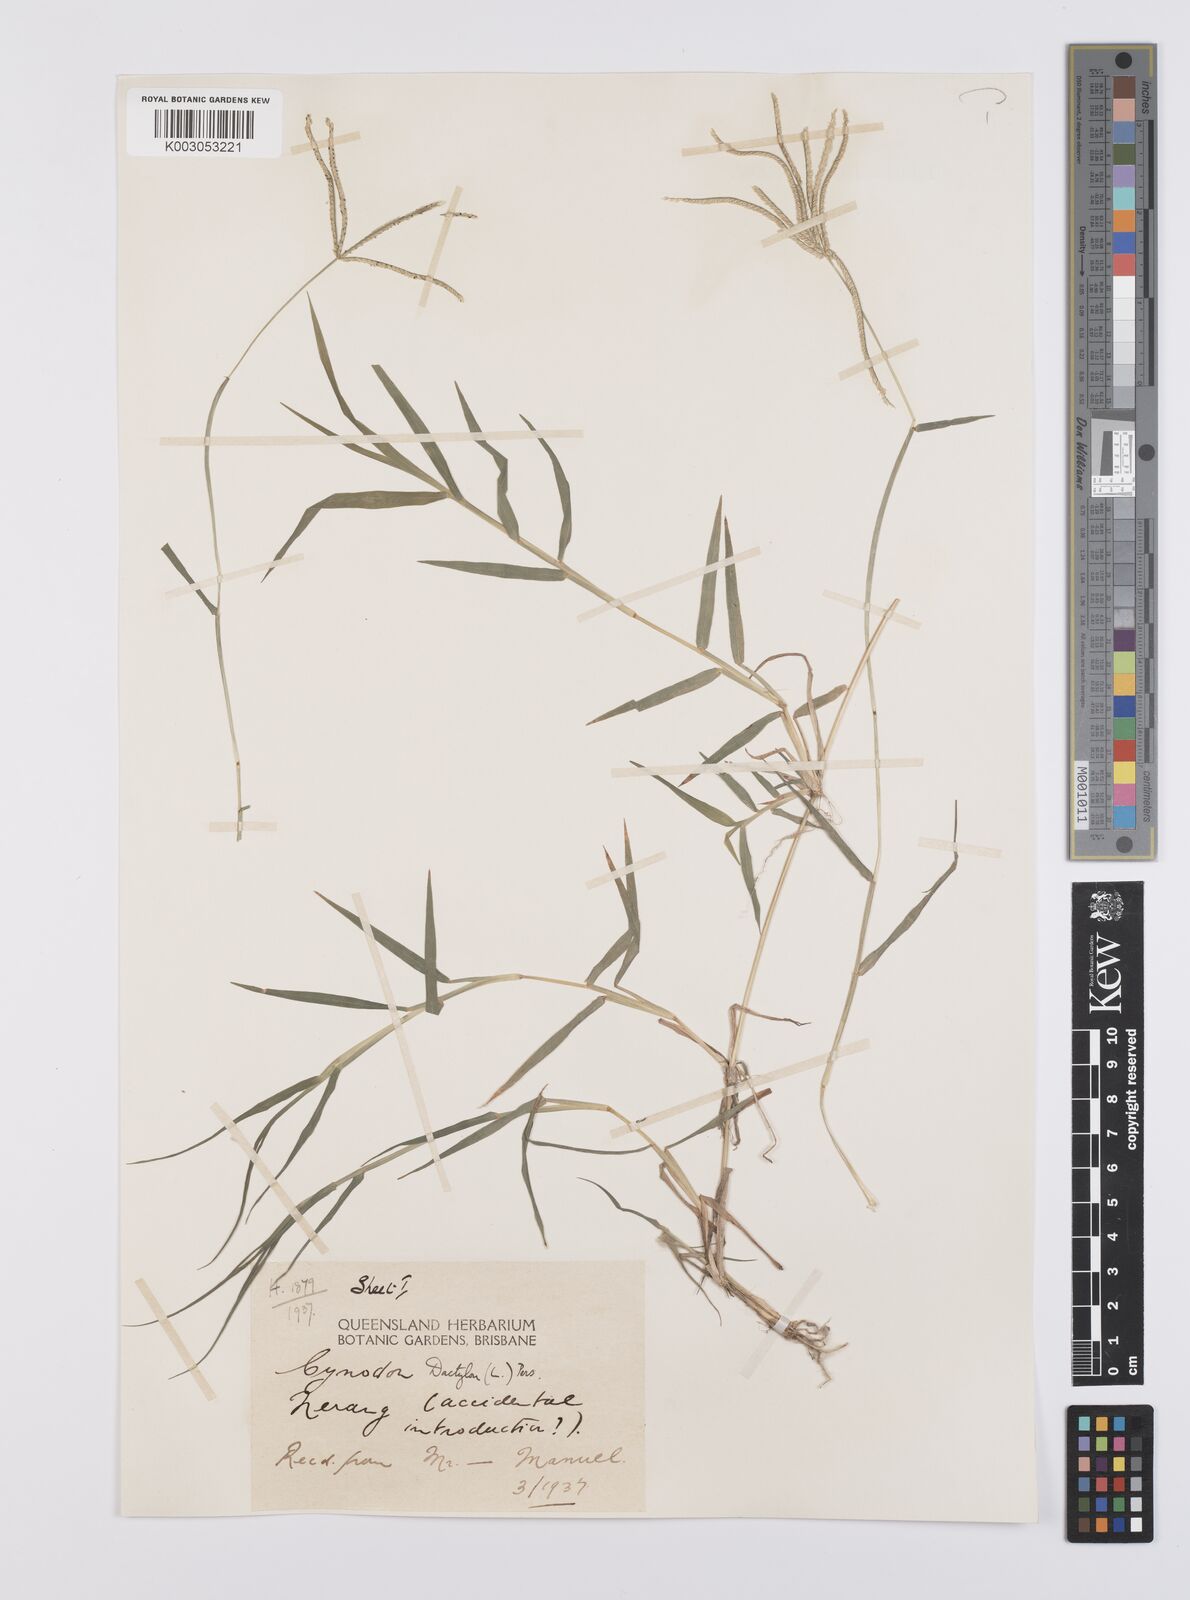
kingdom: Plantae
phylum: Tracheophyta
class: Liliopsida
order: Poales
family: Poaceae
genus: Cynodon
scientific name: Cynodon dactylon
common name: Bermuda grass
